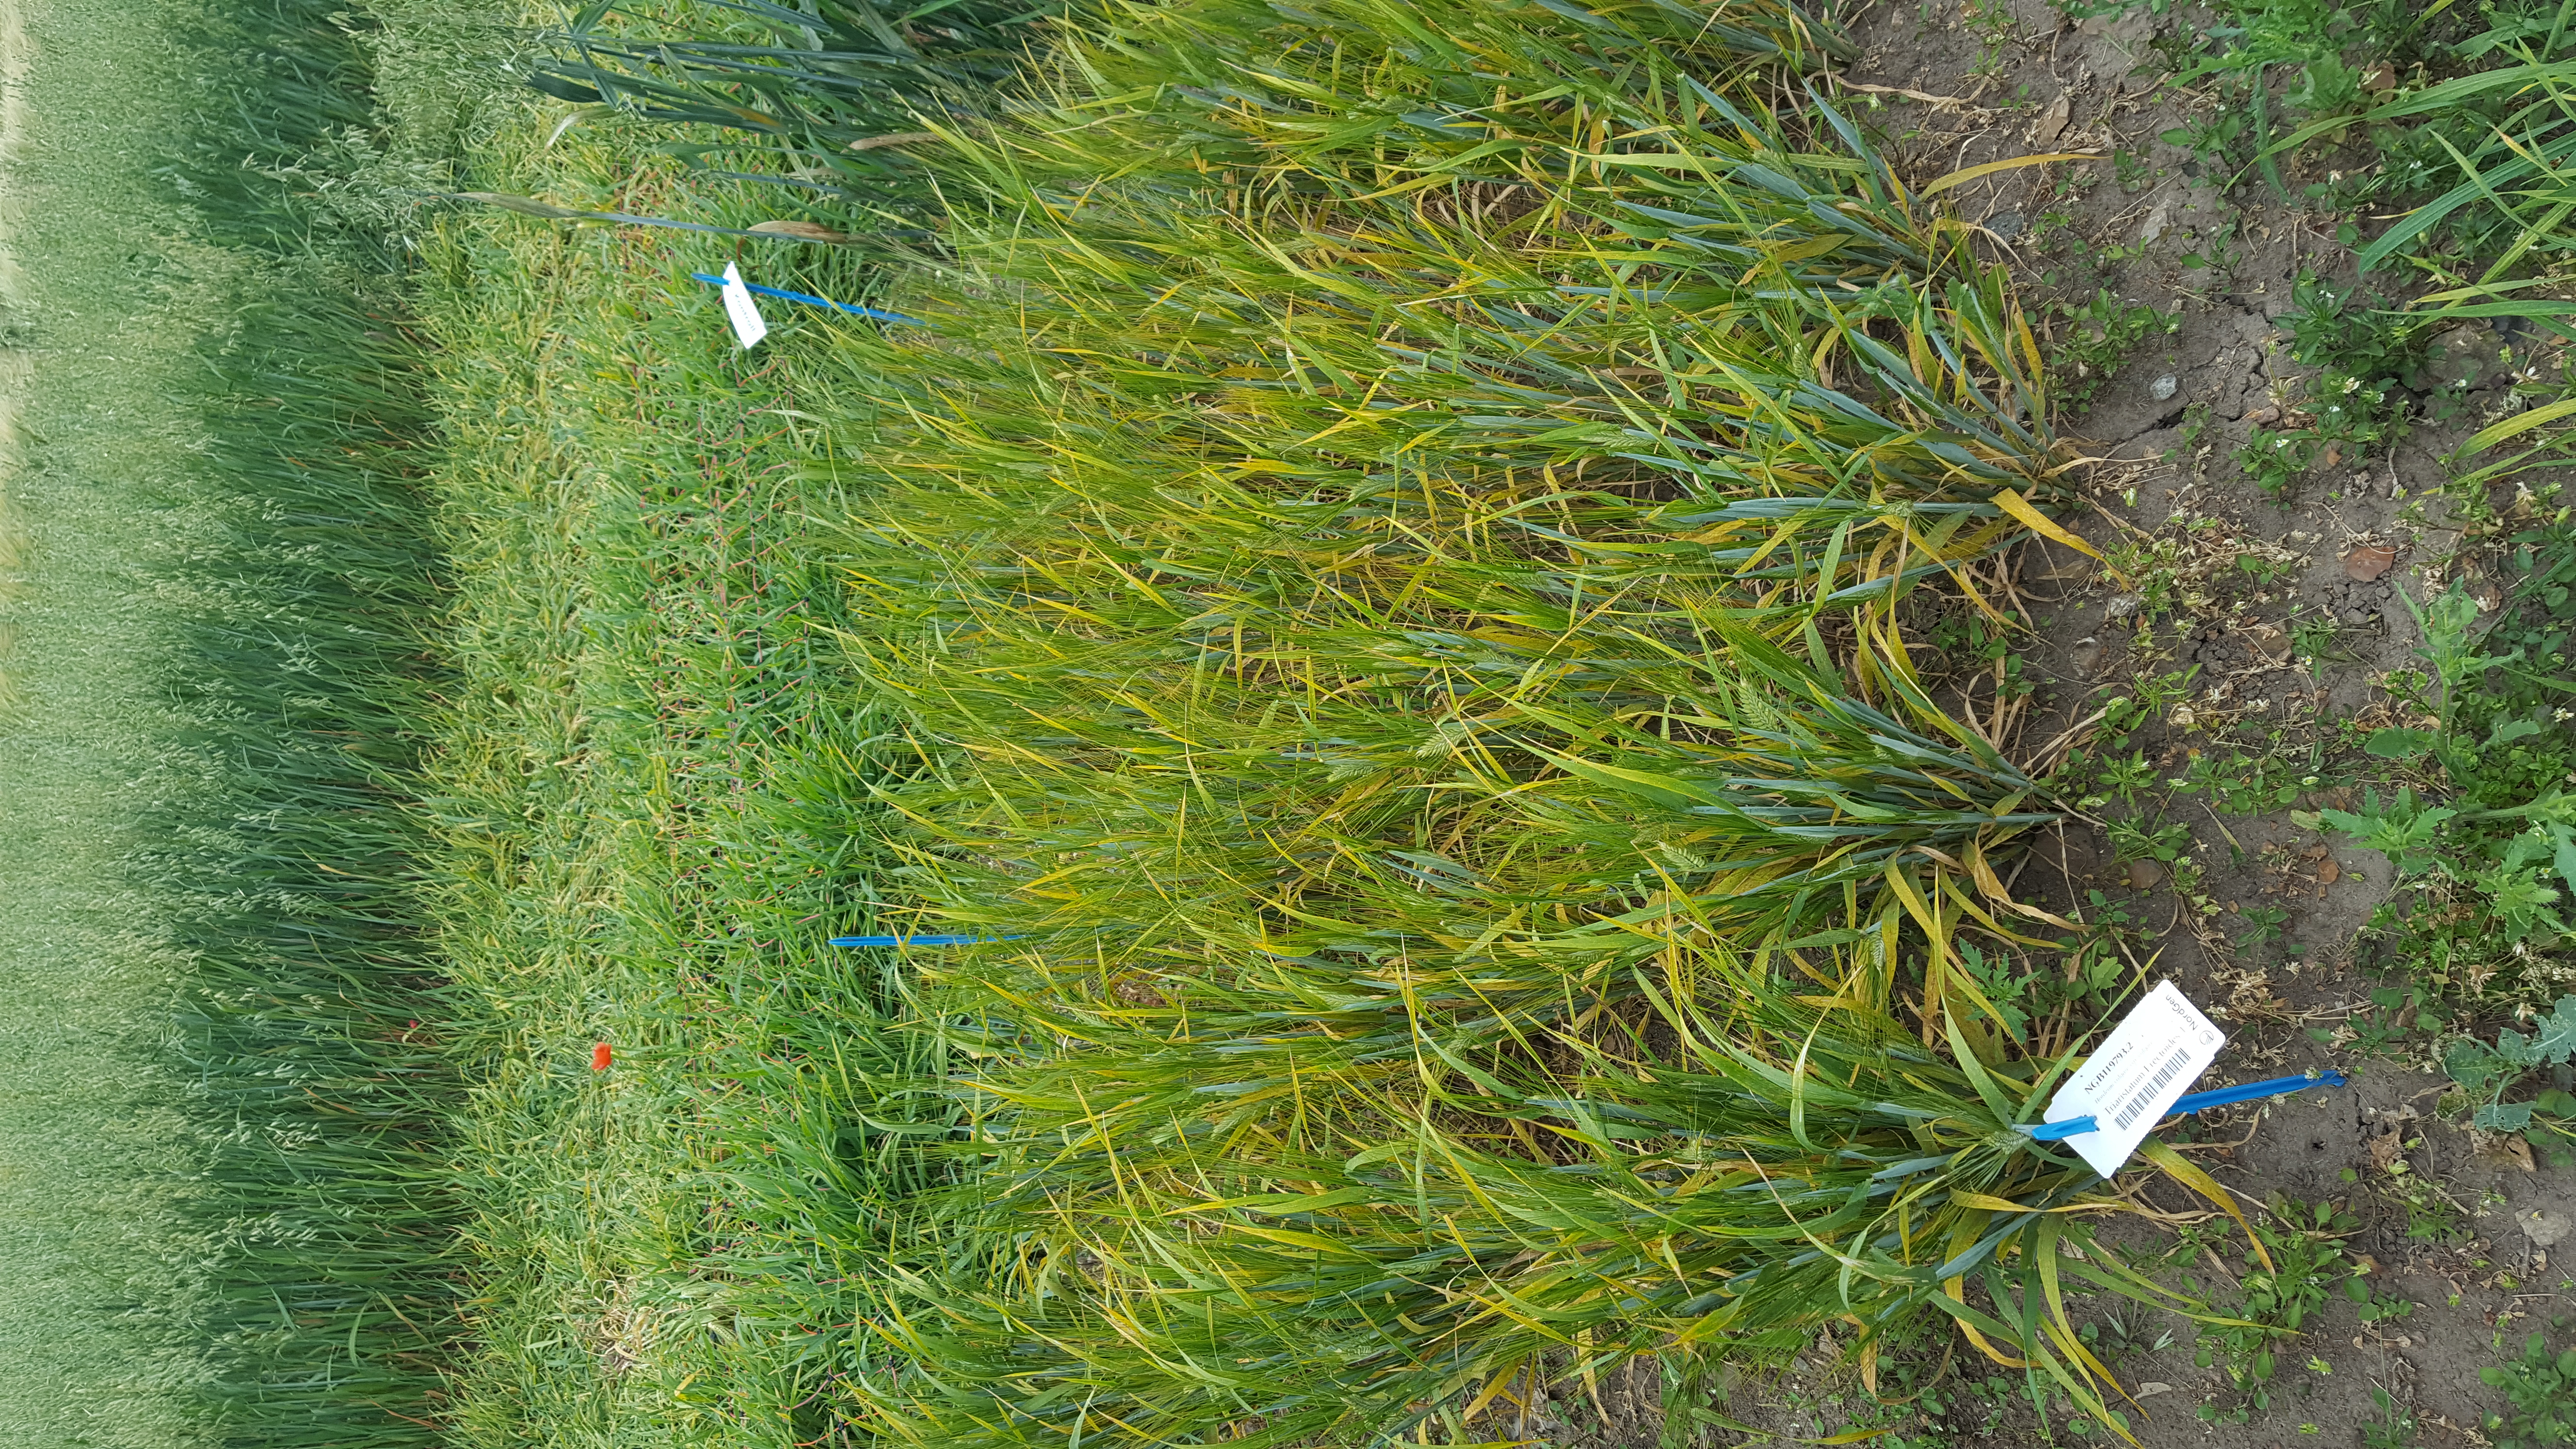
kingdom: Plantae
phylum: Tracheophyta
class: Liliopsida
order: Poales
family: Poaceae
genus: Hordeum
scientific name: Hordeum vulgare
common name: Common barley
